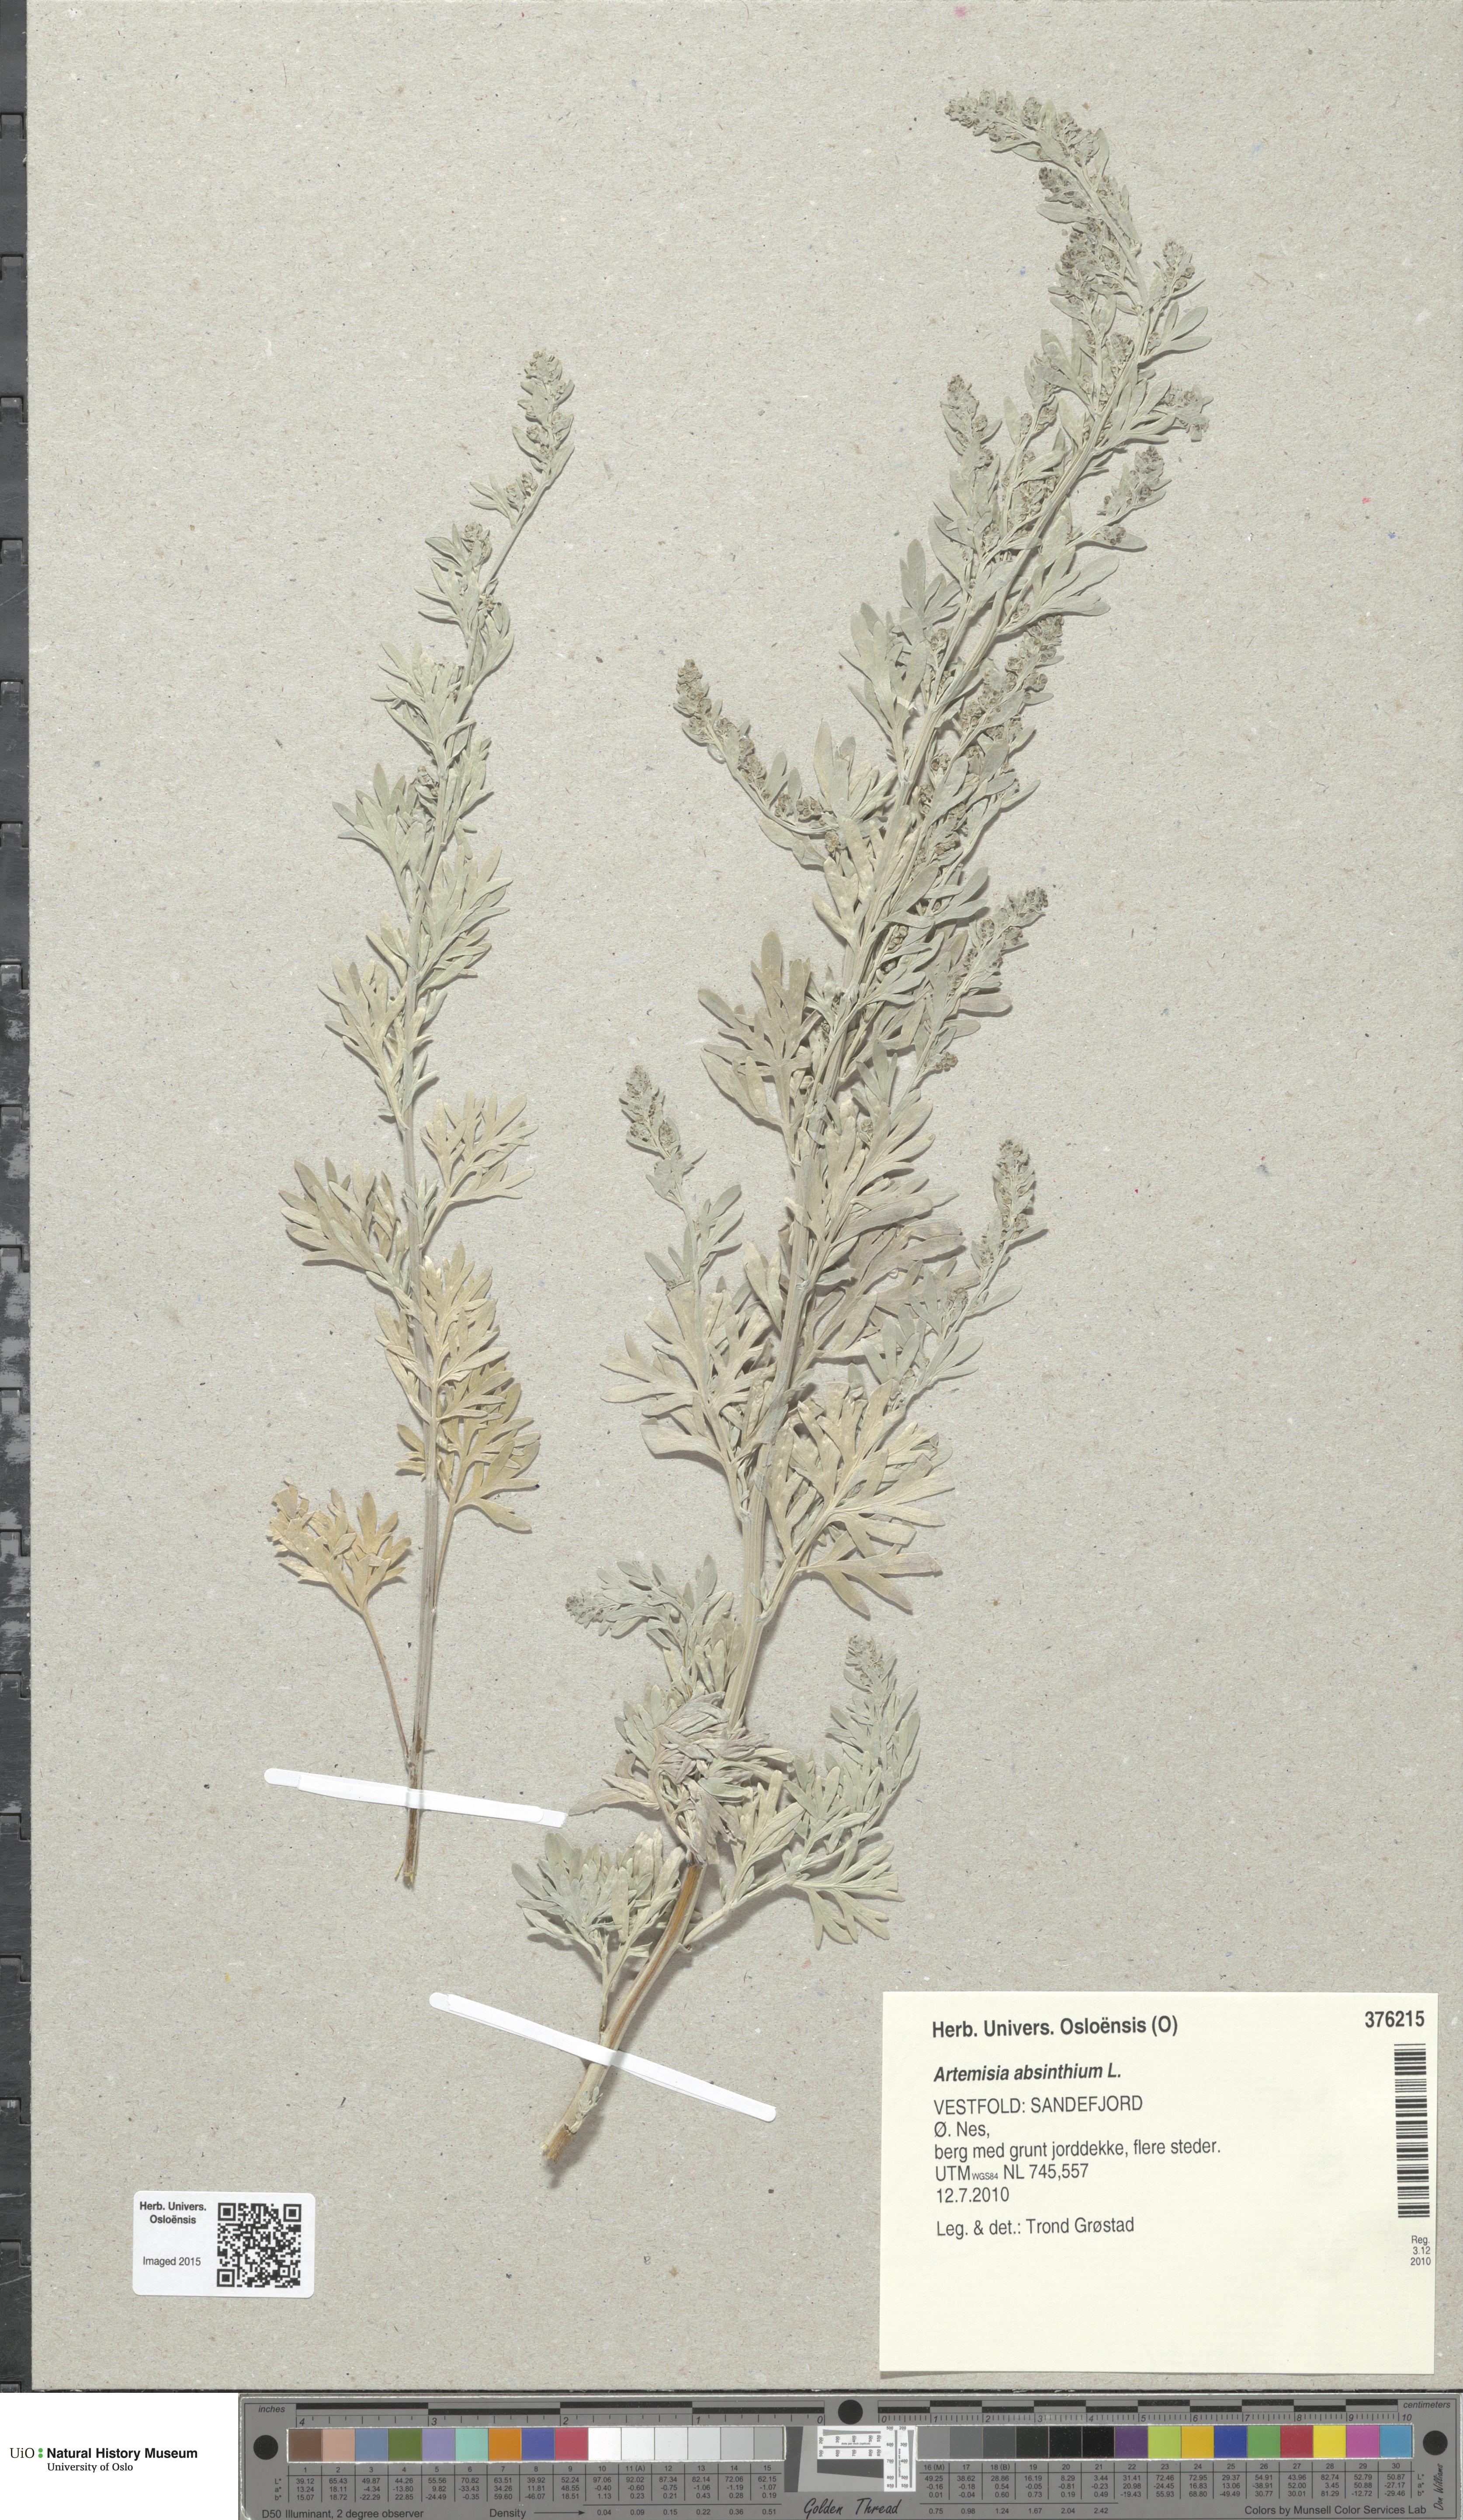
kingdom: Plantae
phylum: Tracheophyta
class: Magnoliopsida
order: Asterales
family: Asteraceae
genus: Artemisia
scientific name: Artemisia absinthium
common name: Wormwood
